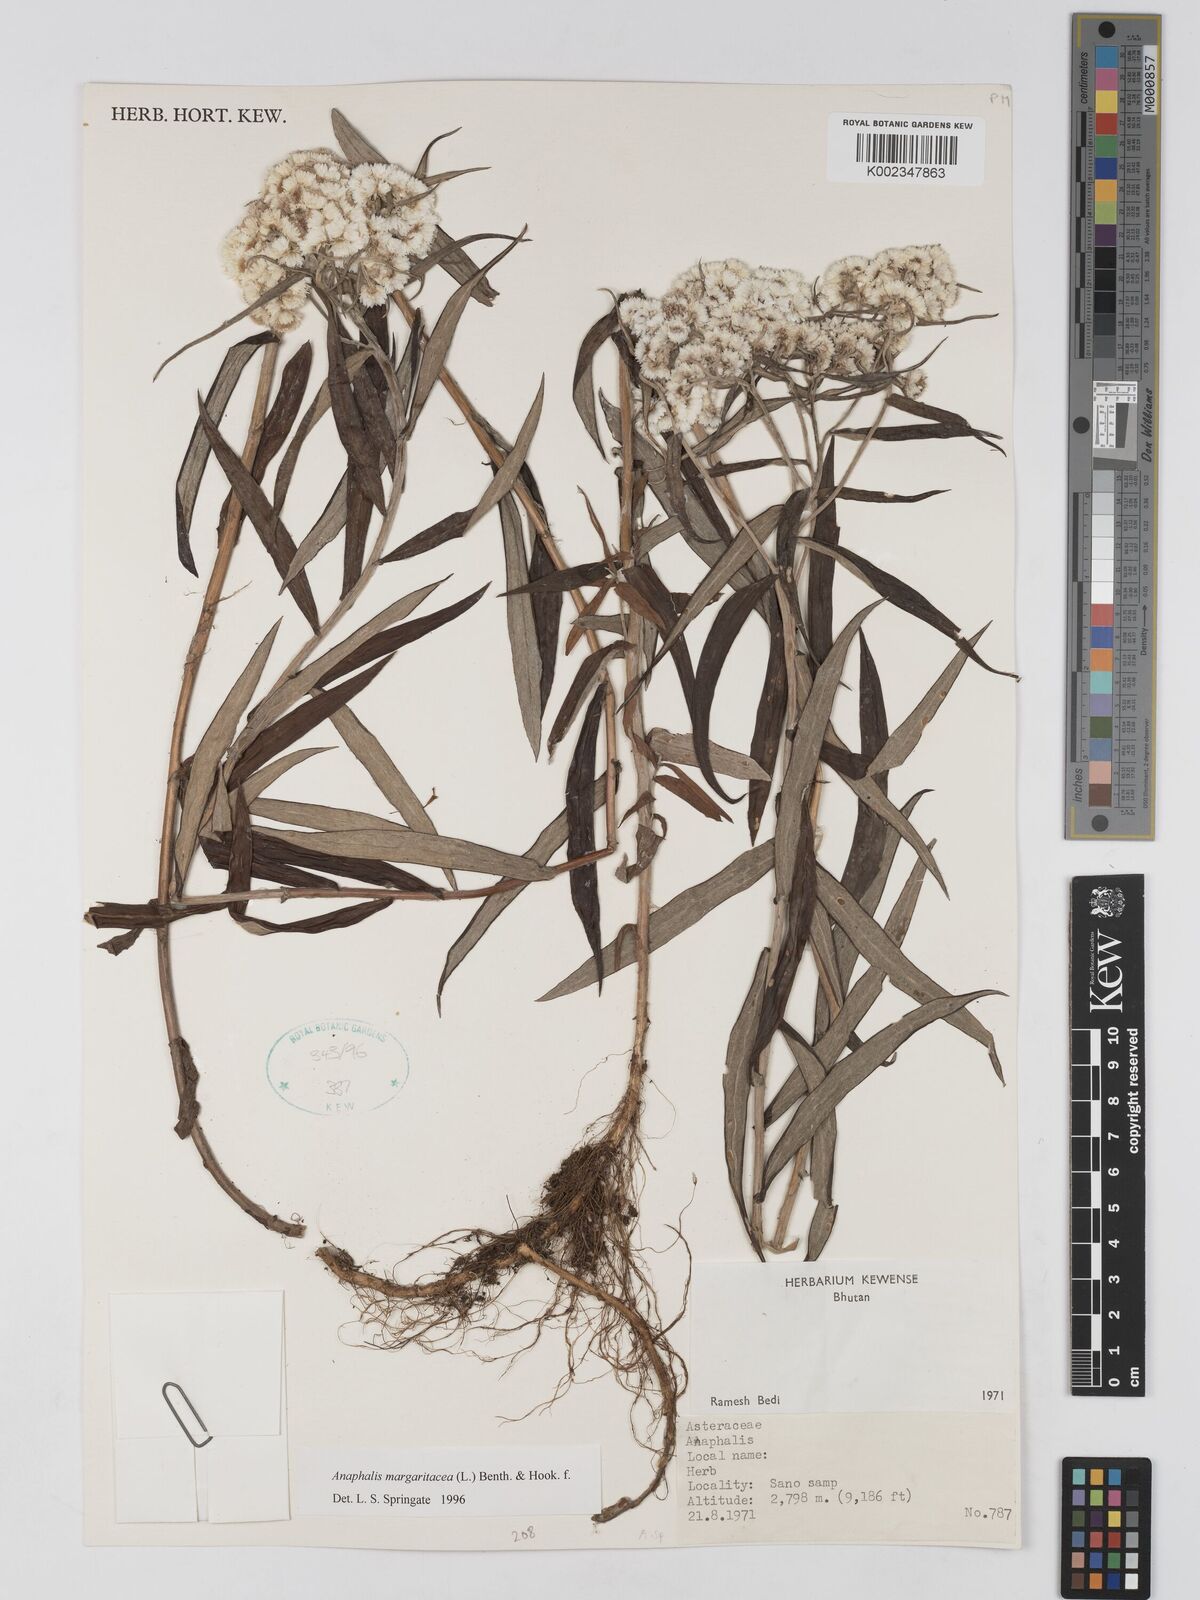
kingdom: Plantae
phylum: Tracheophyta
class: Magnoliopsida
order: Asterales
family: Asteraceae
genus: Anaphalis
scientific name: Anaphalis margaritacea
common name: Pearly everlasting
